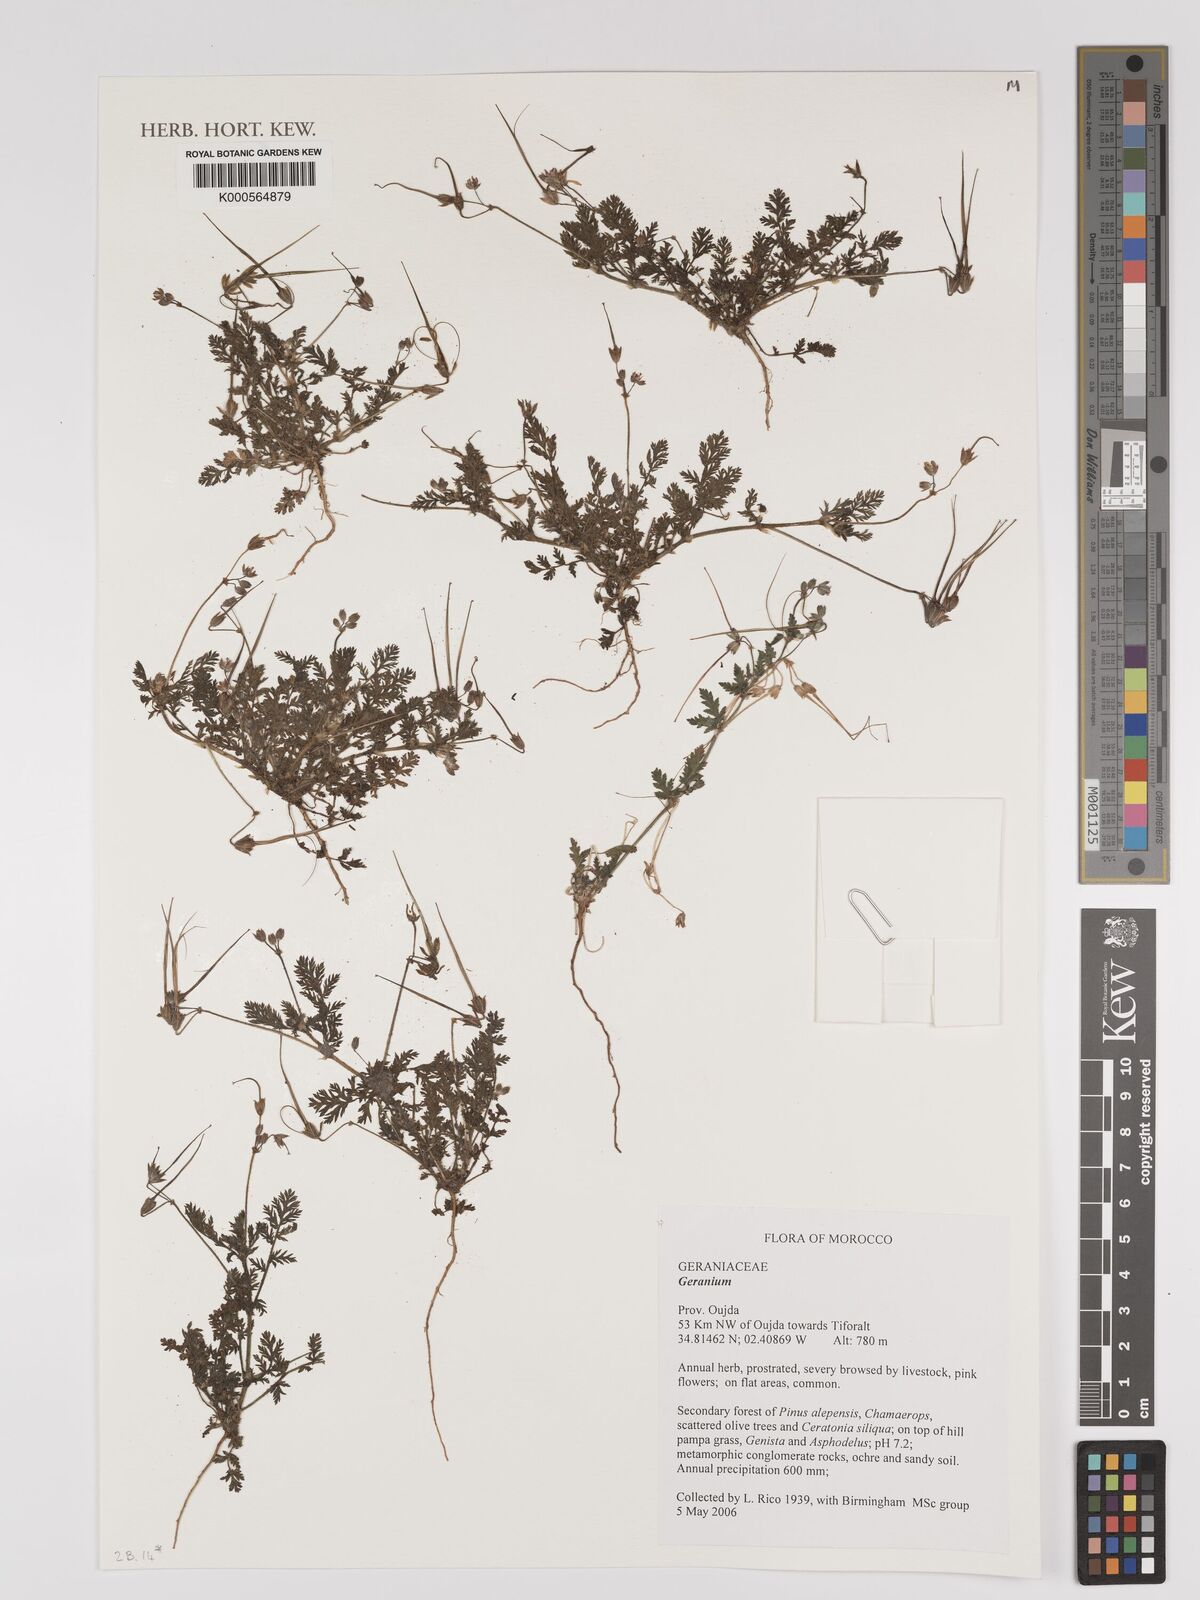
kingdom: Plantae
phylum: Tracheophyta
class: Magnoliopsida
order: Geraniales
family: Geraniaceae
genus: Geranium
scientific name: Geranium
